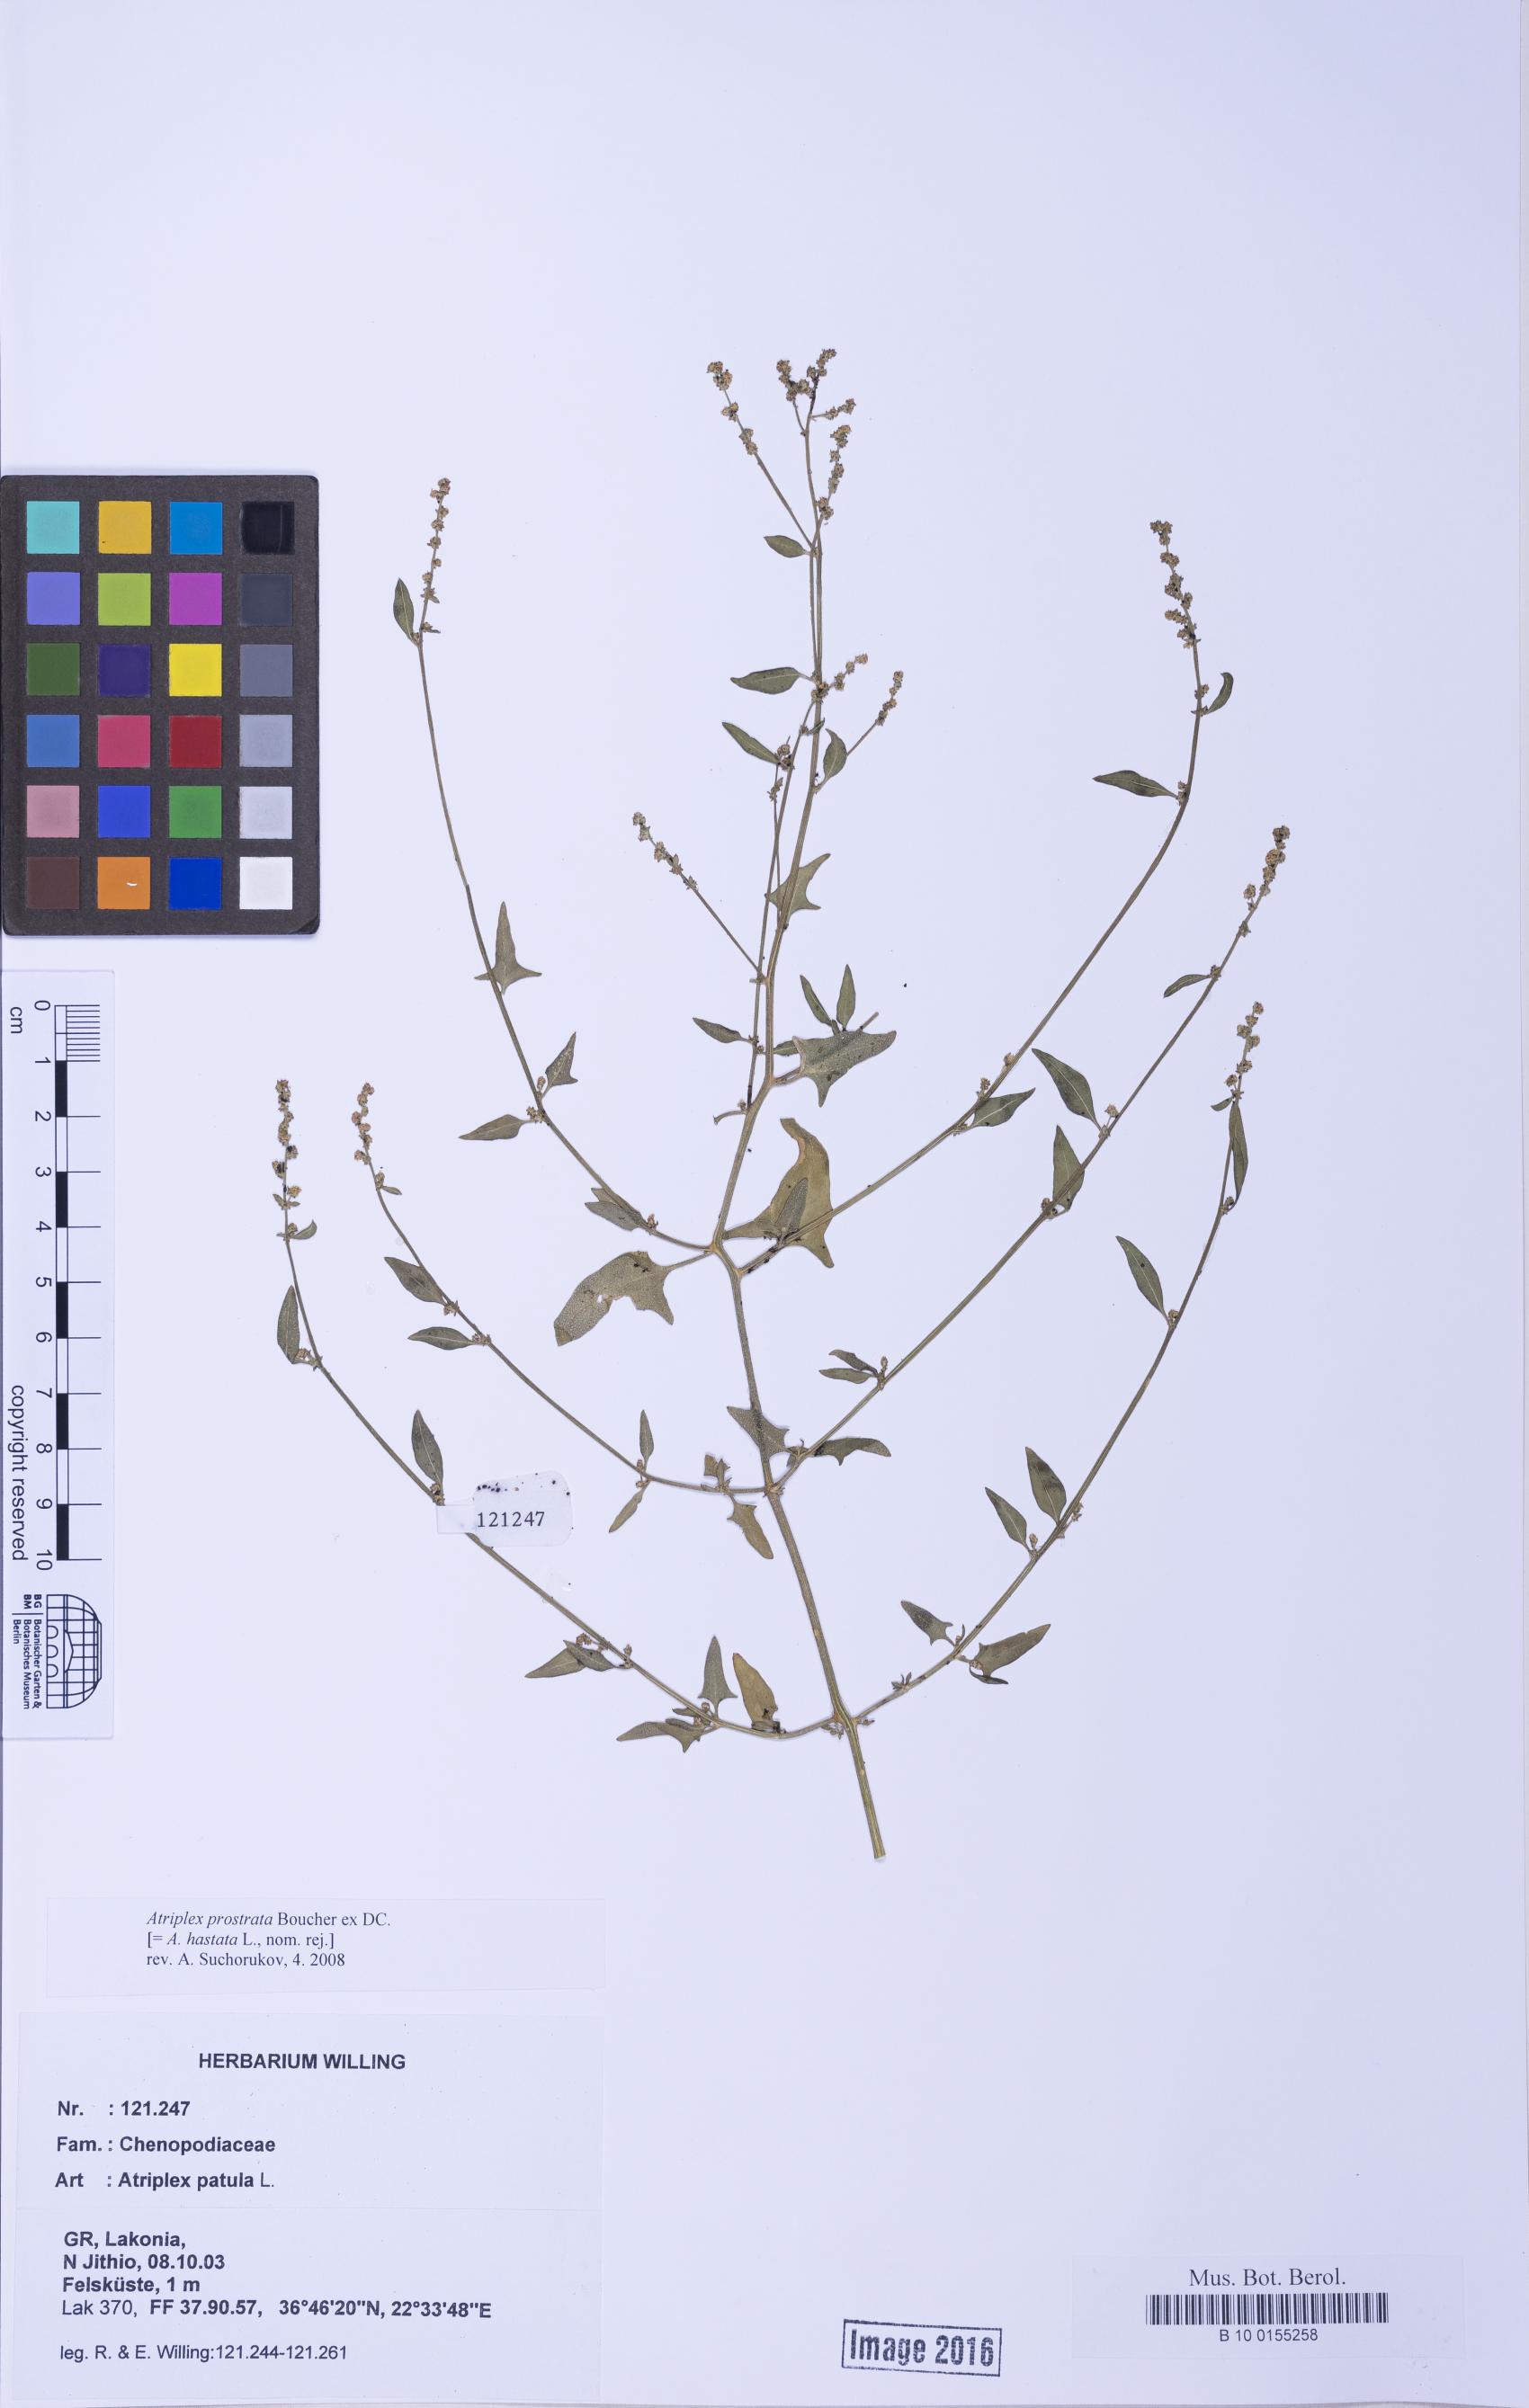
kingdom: Plantae
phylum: Tracheophyta
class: Magnoliopsida
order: Caryophyllales
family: Amaranthaceae
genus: Atriplex
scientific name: Atriplex prostrata
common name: Spear-leaved orache
